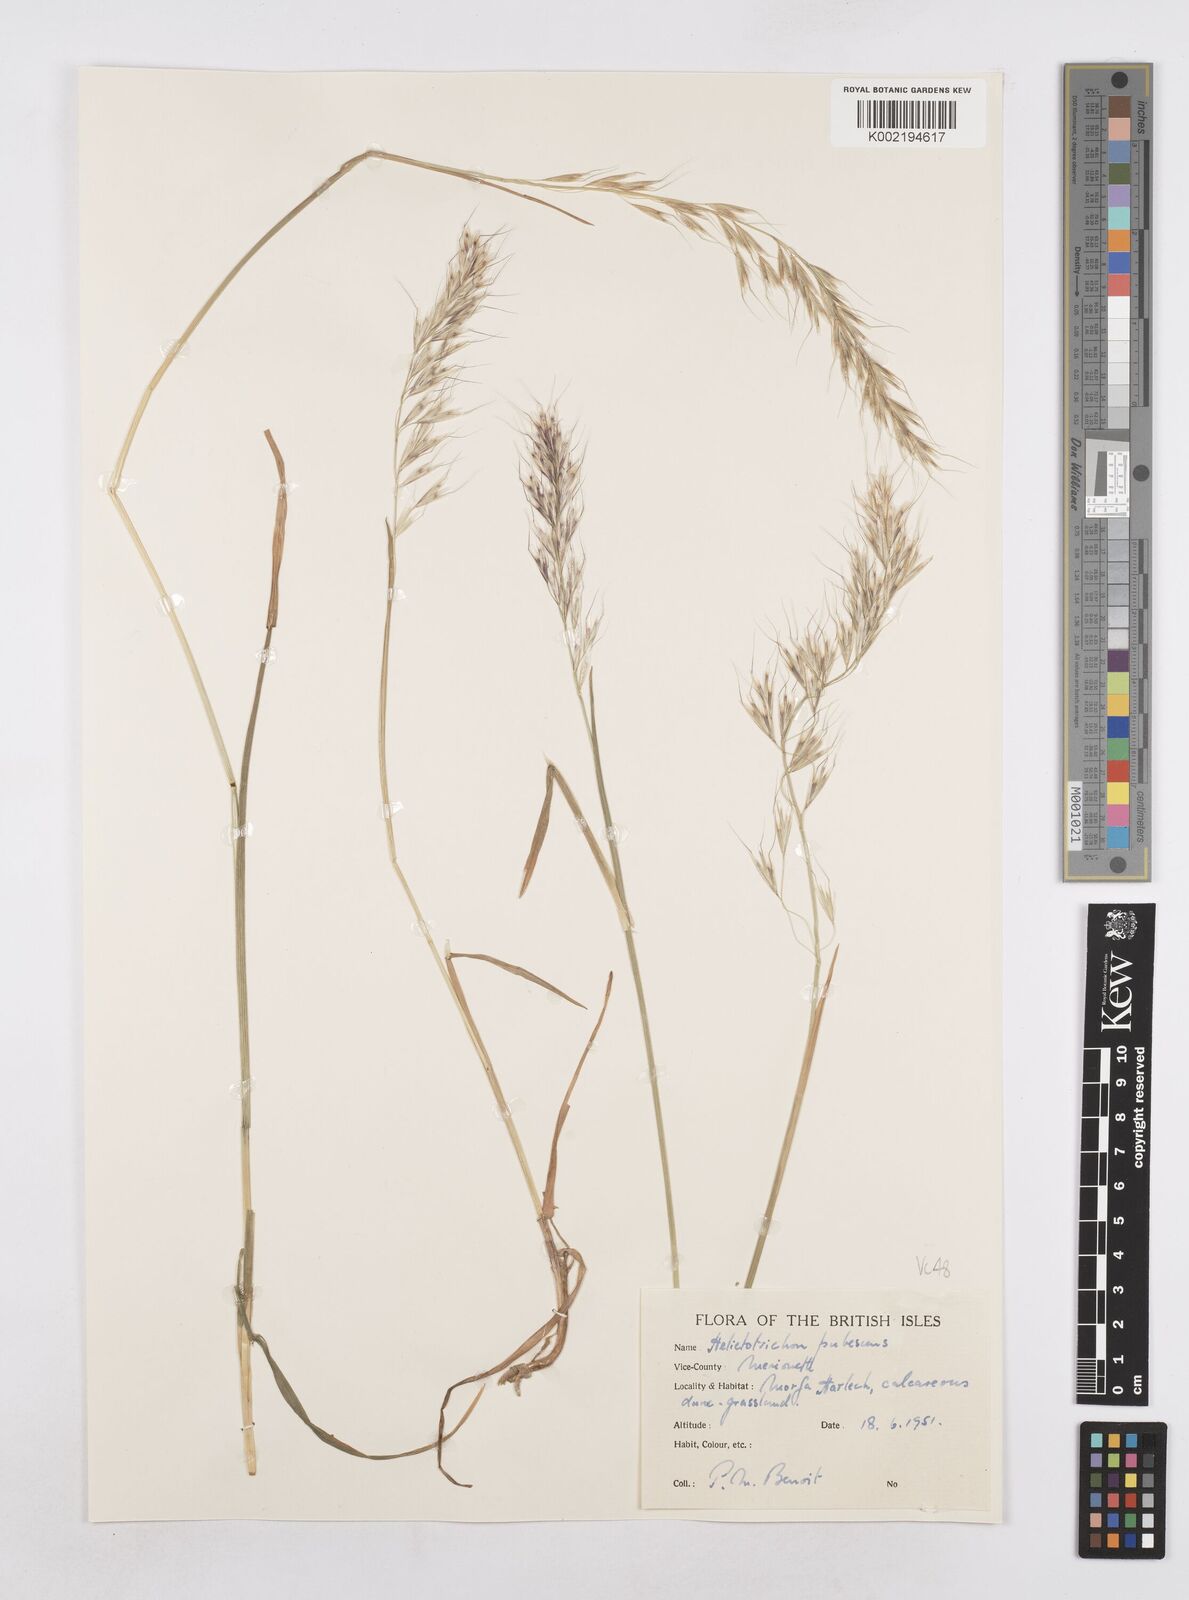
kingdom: Plantae
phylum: Tracheophyta
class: Liliopsida
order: Poales
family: Poaceae
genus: Avenula
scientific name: Avenula pubescens
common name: Downy alpine oatgrass
